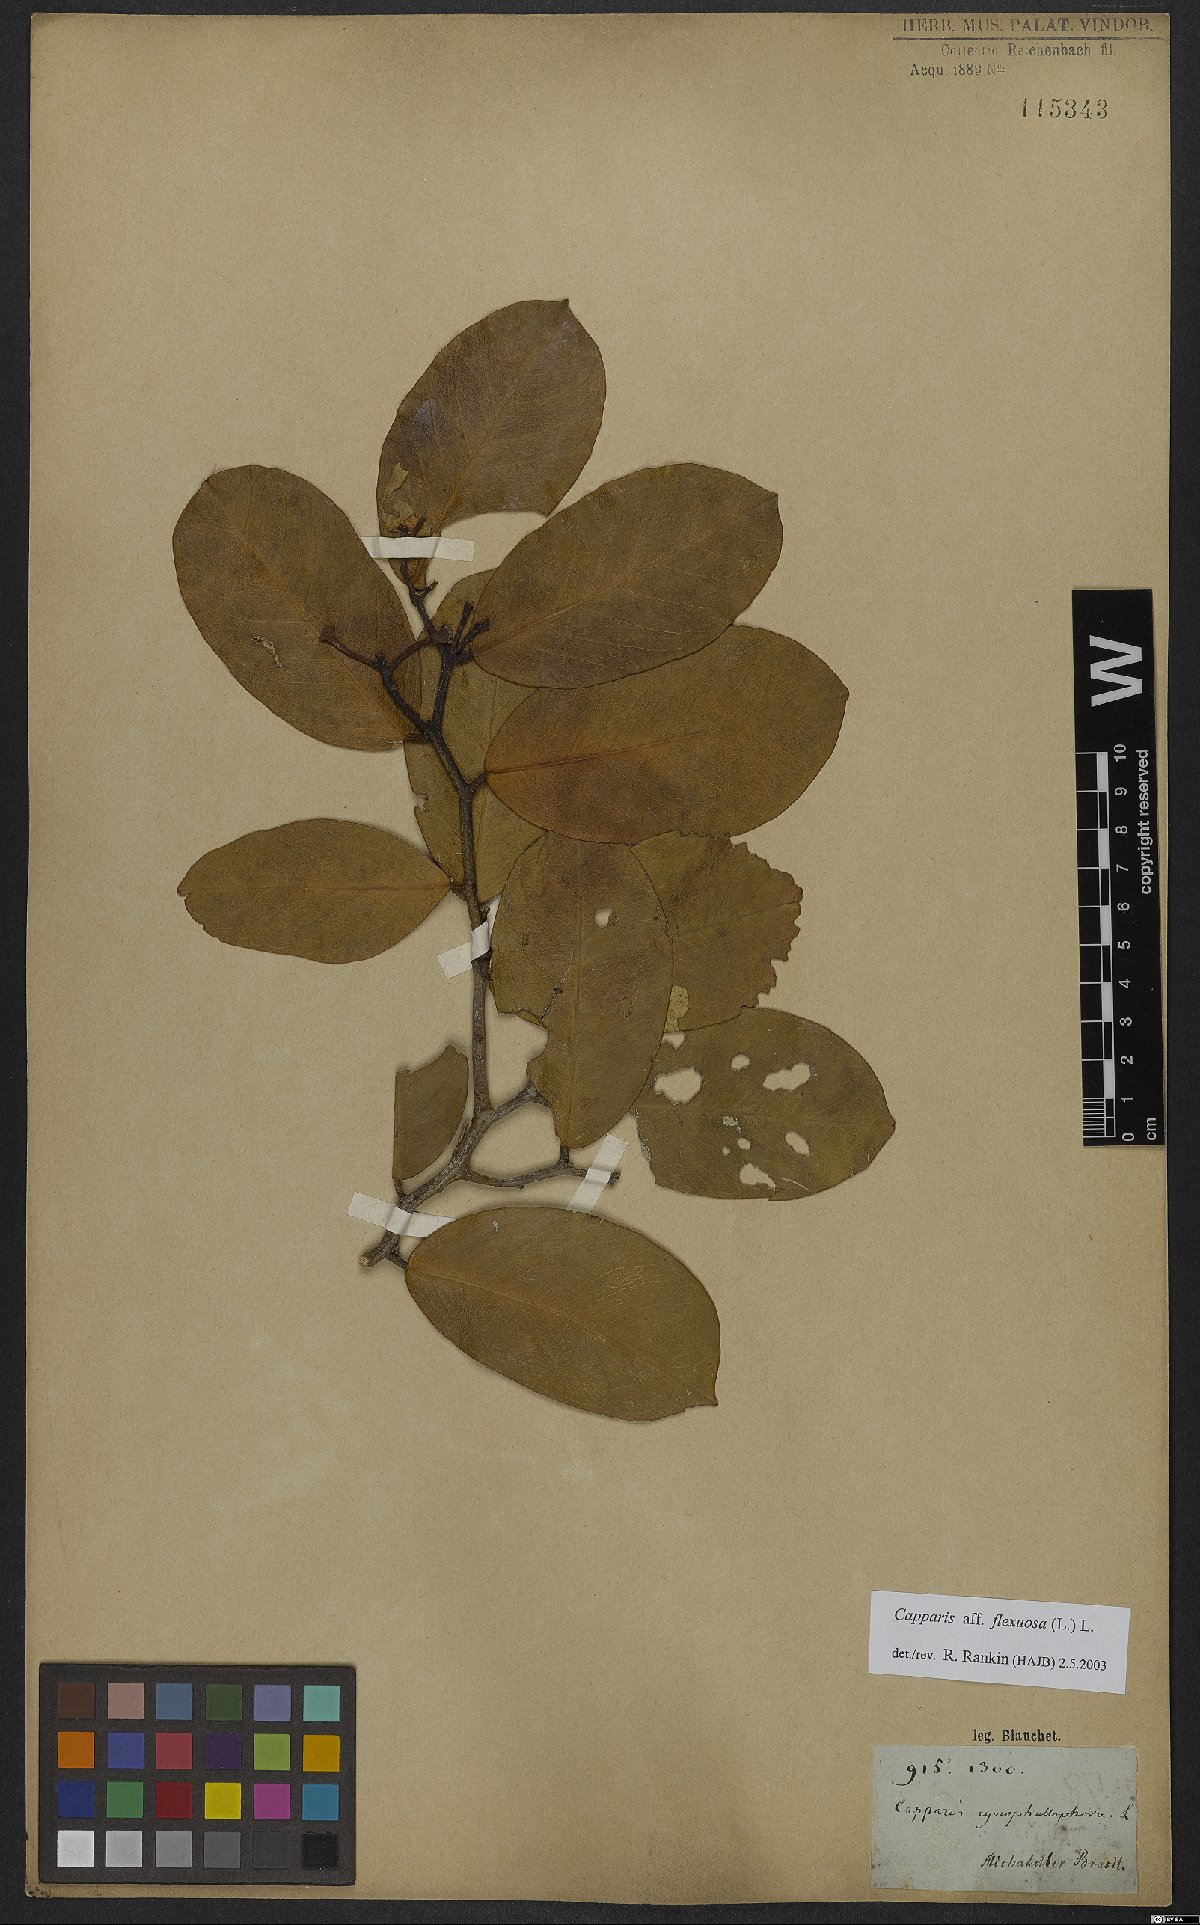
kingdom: Plantae
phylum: Tracheophyta
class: Magnoliopsida
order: Brassicales
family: Capparaceae
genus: Cynophalla
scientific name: Cynophalla flexuosa
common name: Capertree
